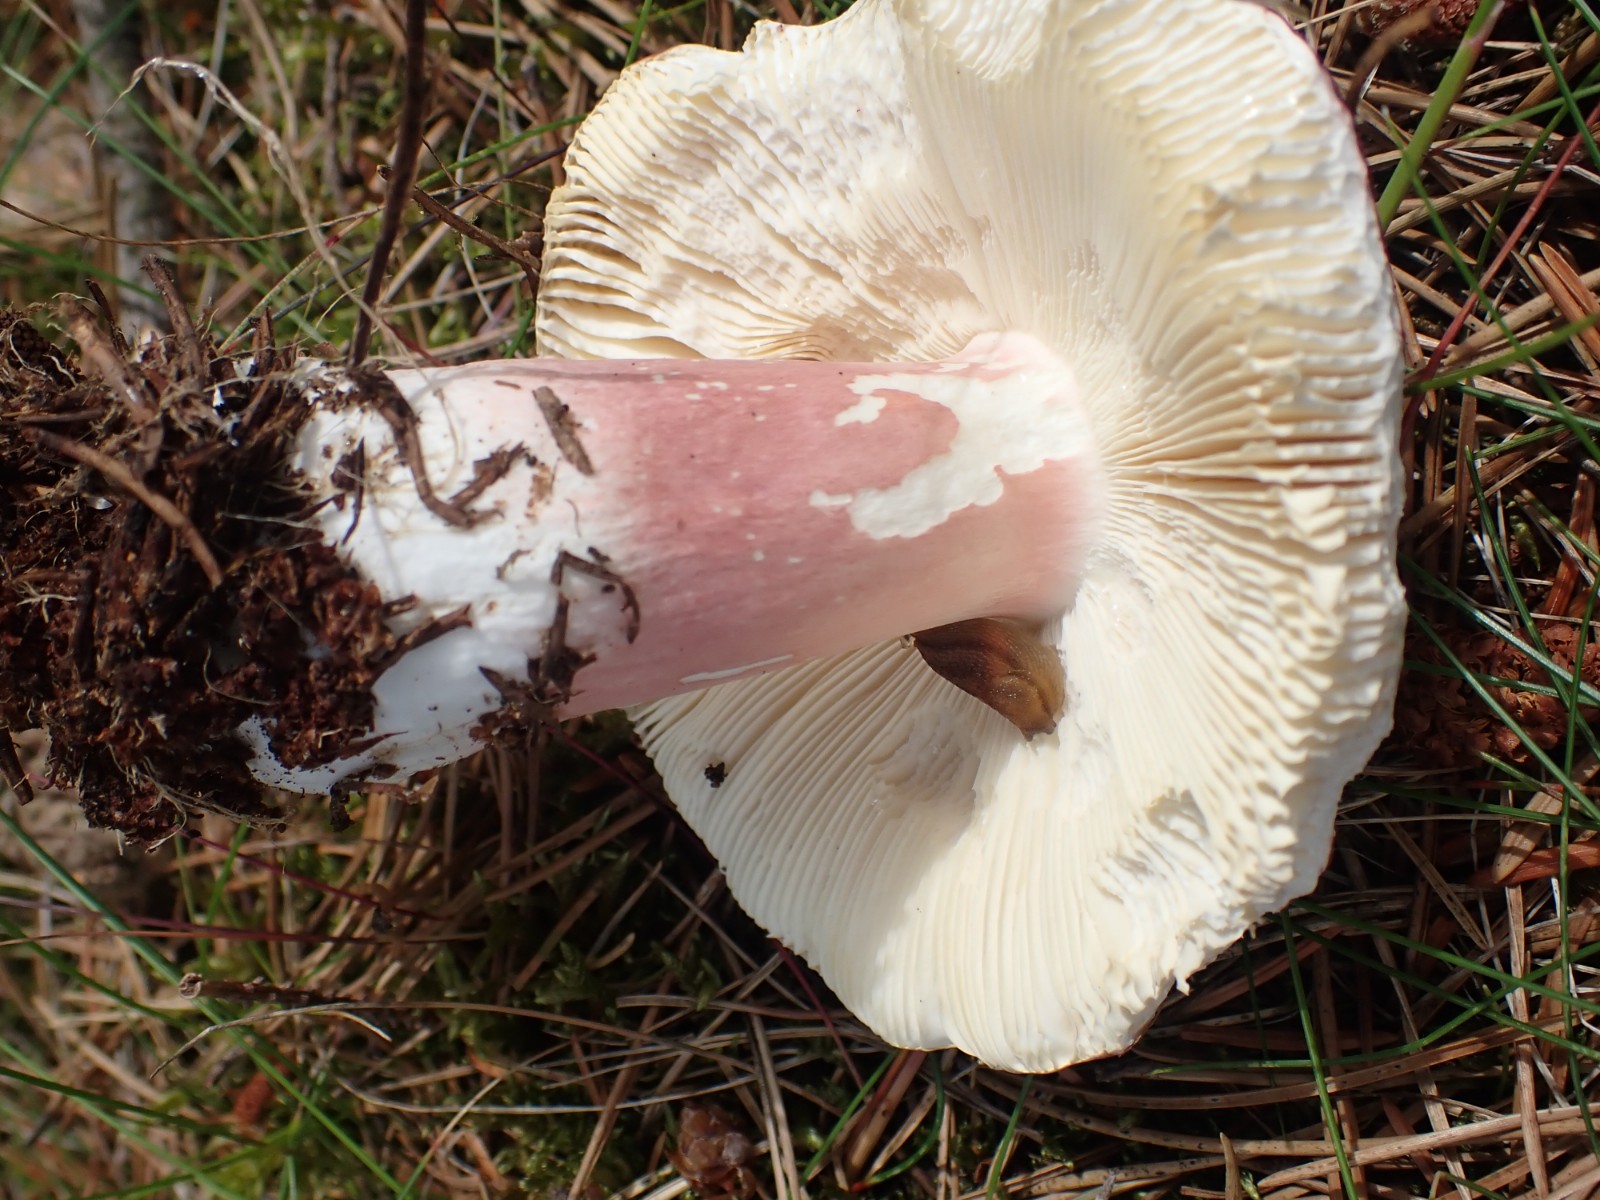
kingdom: Fungi
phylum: Basidiomycota
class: Agaricomycetes
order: Russulales
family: Russulaceae
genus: Russula
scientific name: Russula paludosa
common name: prægtig skørhat
